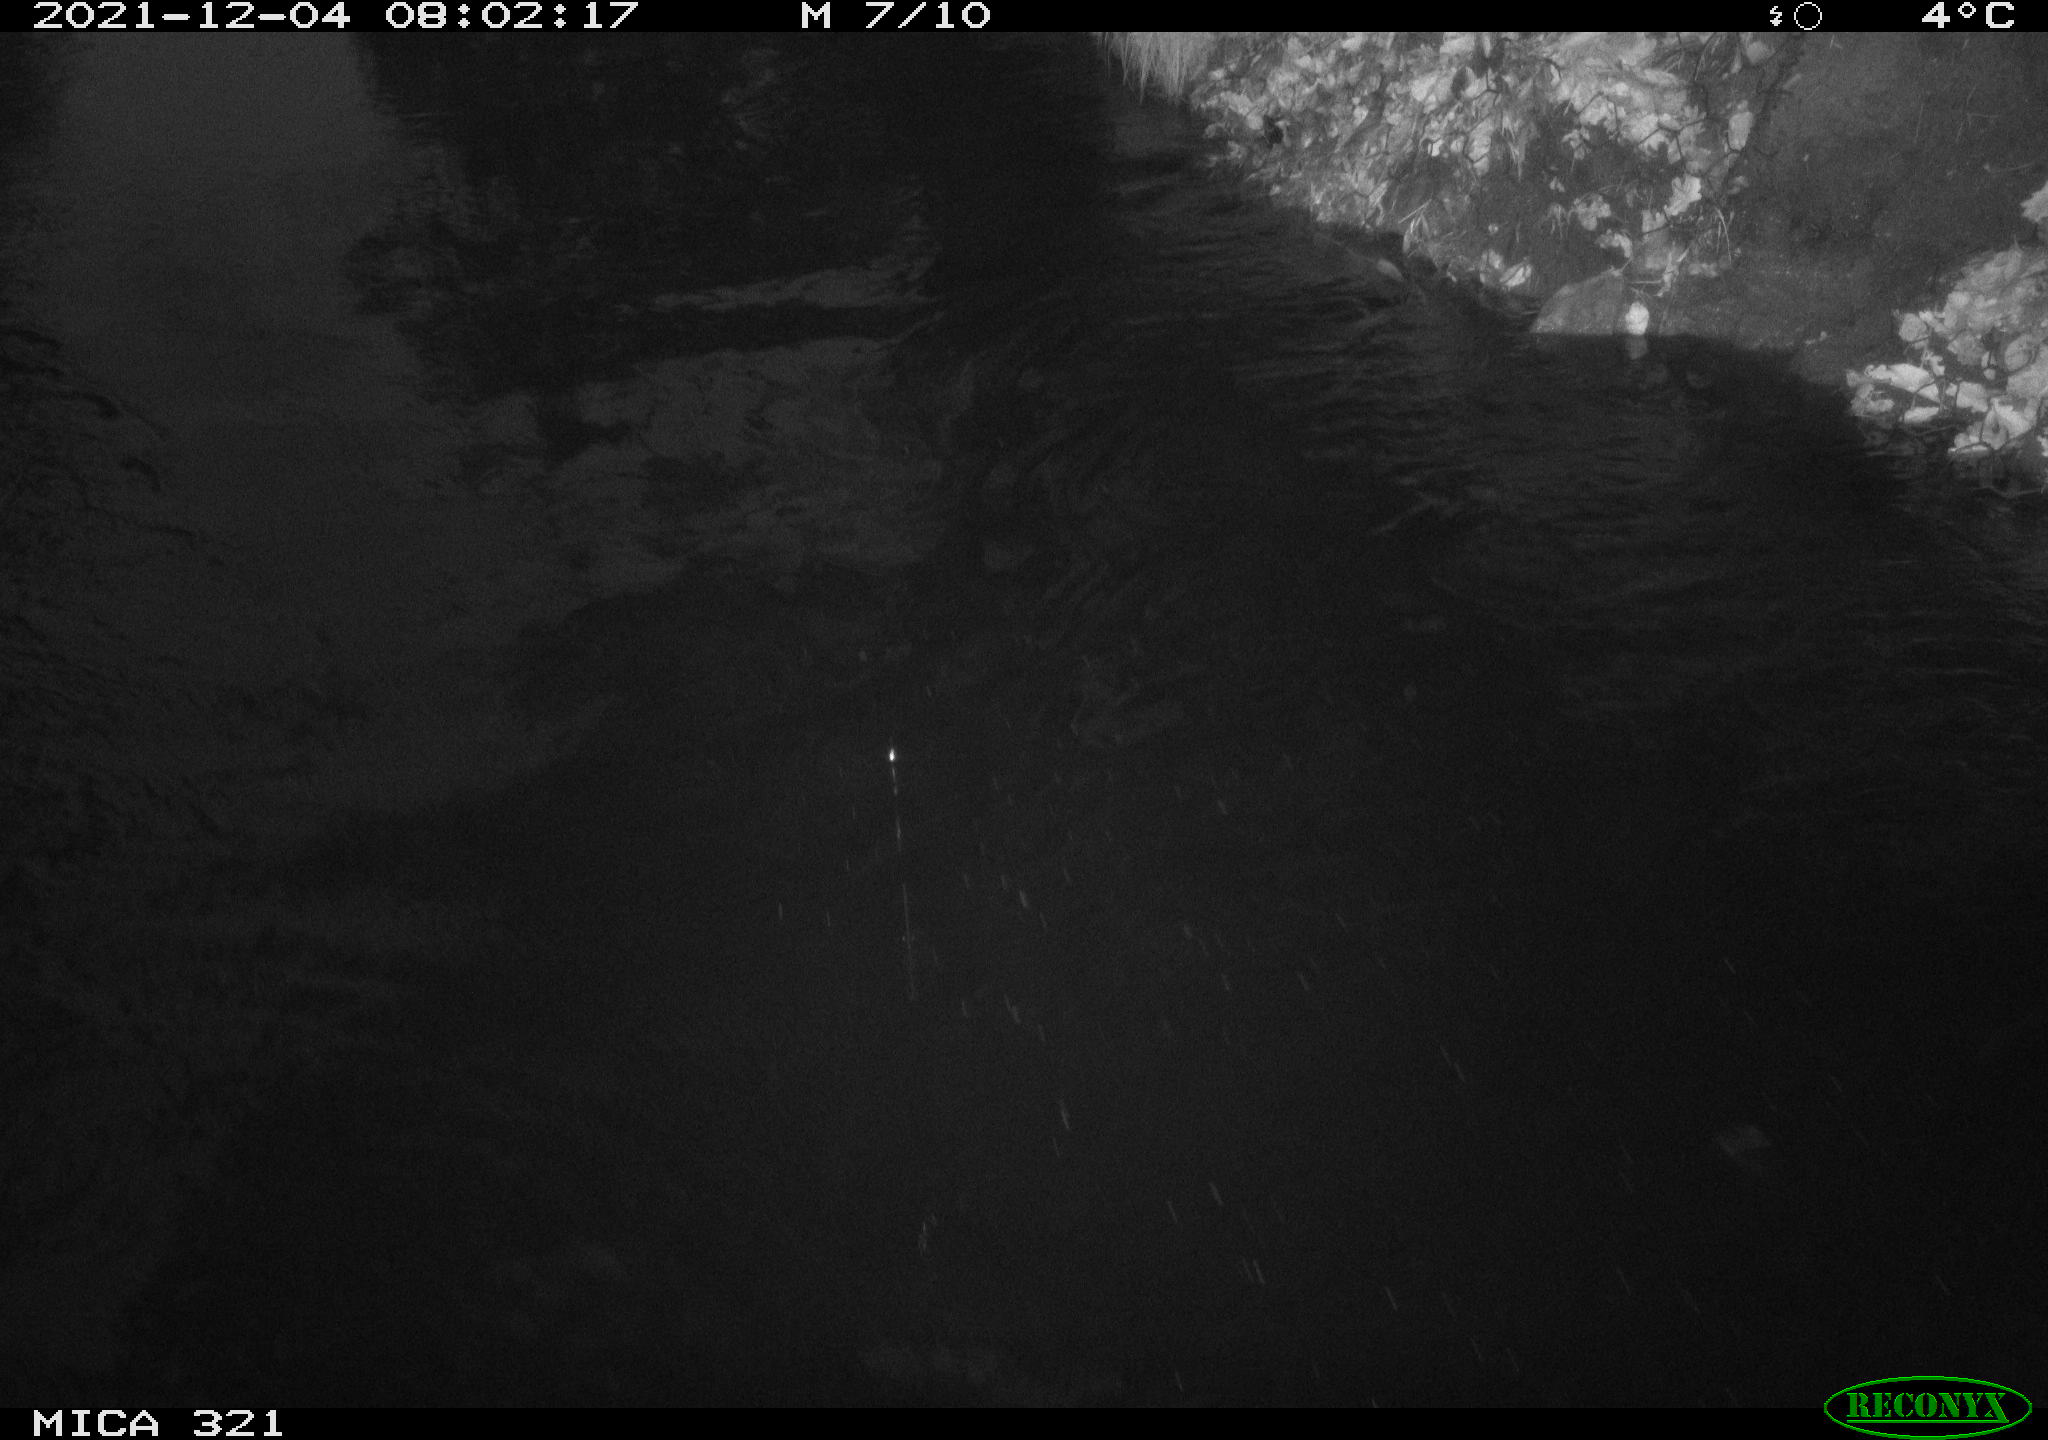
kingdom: Animalia
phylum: Chordata
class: Aves
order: Anseriformes
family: Anatidae
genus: Anas
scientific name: Anas
